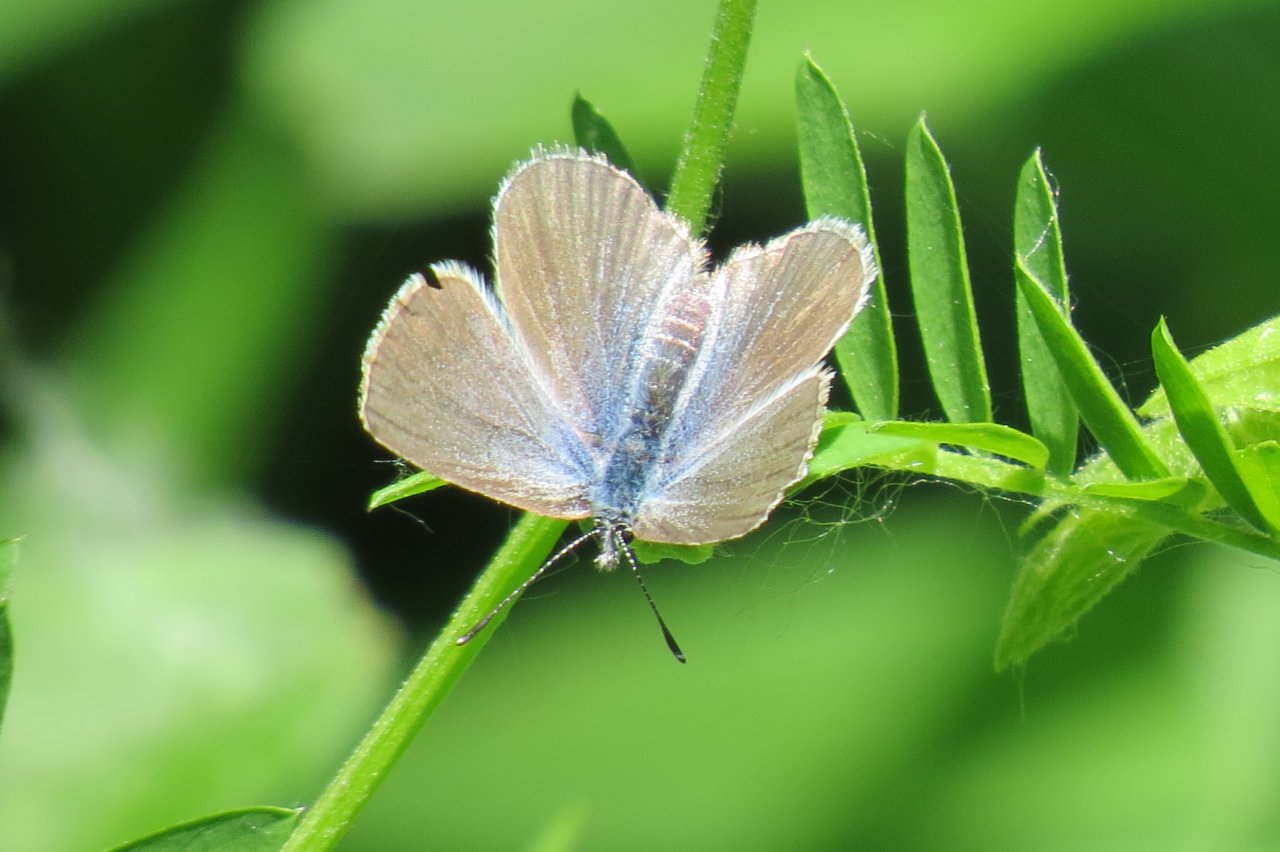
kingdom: Animalia
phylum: Arthropoda
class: Insecta
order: Lepidoptera
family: Lycaenidae
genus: Glaucopsyche
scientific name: Glaucopsyche lygdamus
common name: Silvery Blue
